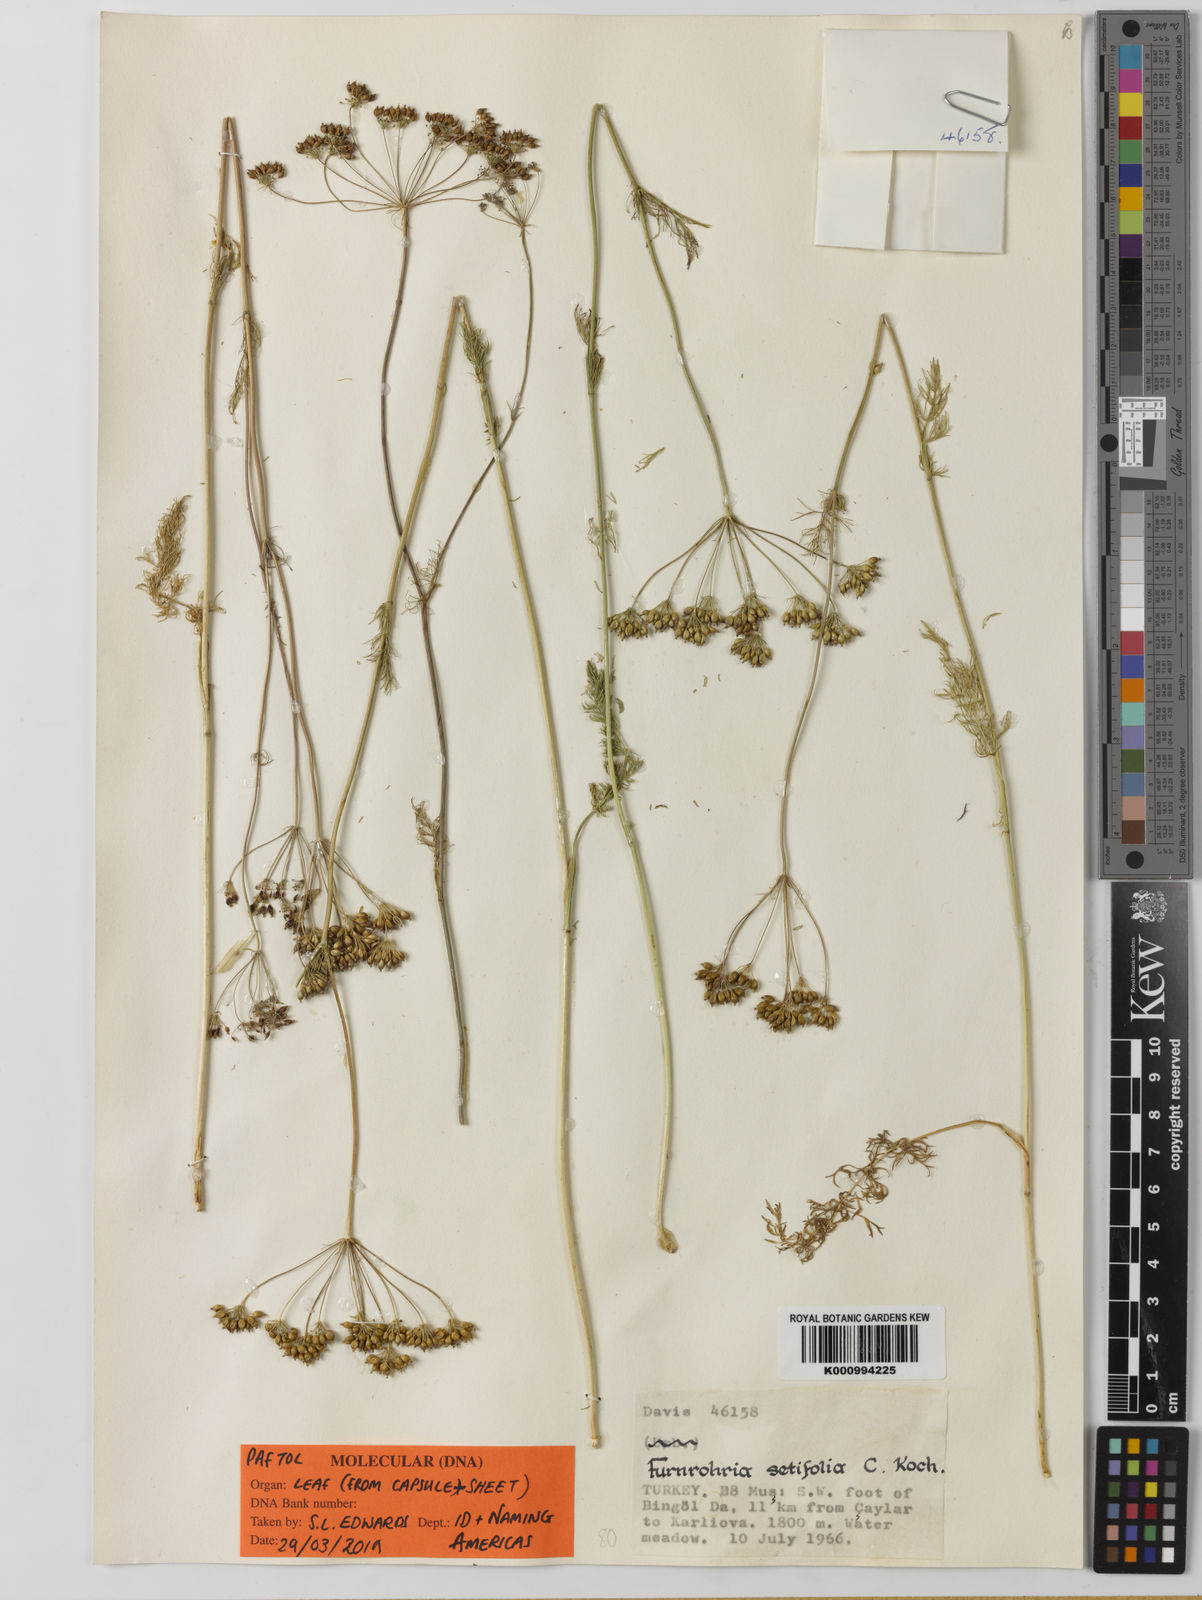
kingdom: Plantae
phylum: Tracheophyta
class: Magnoliopsida
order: Apiales
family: Apiaceae
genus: Fuernrohria
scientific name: Fuernrohria setifolia
